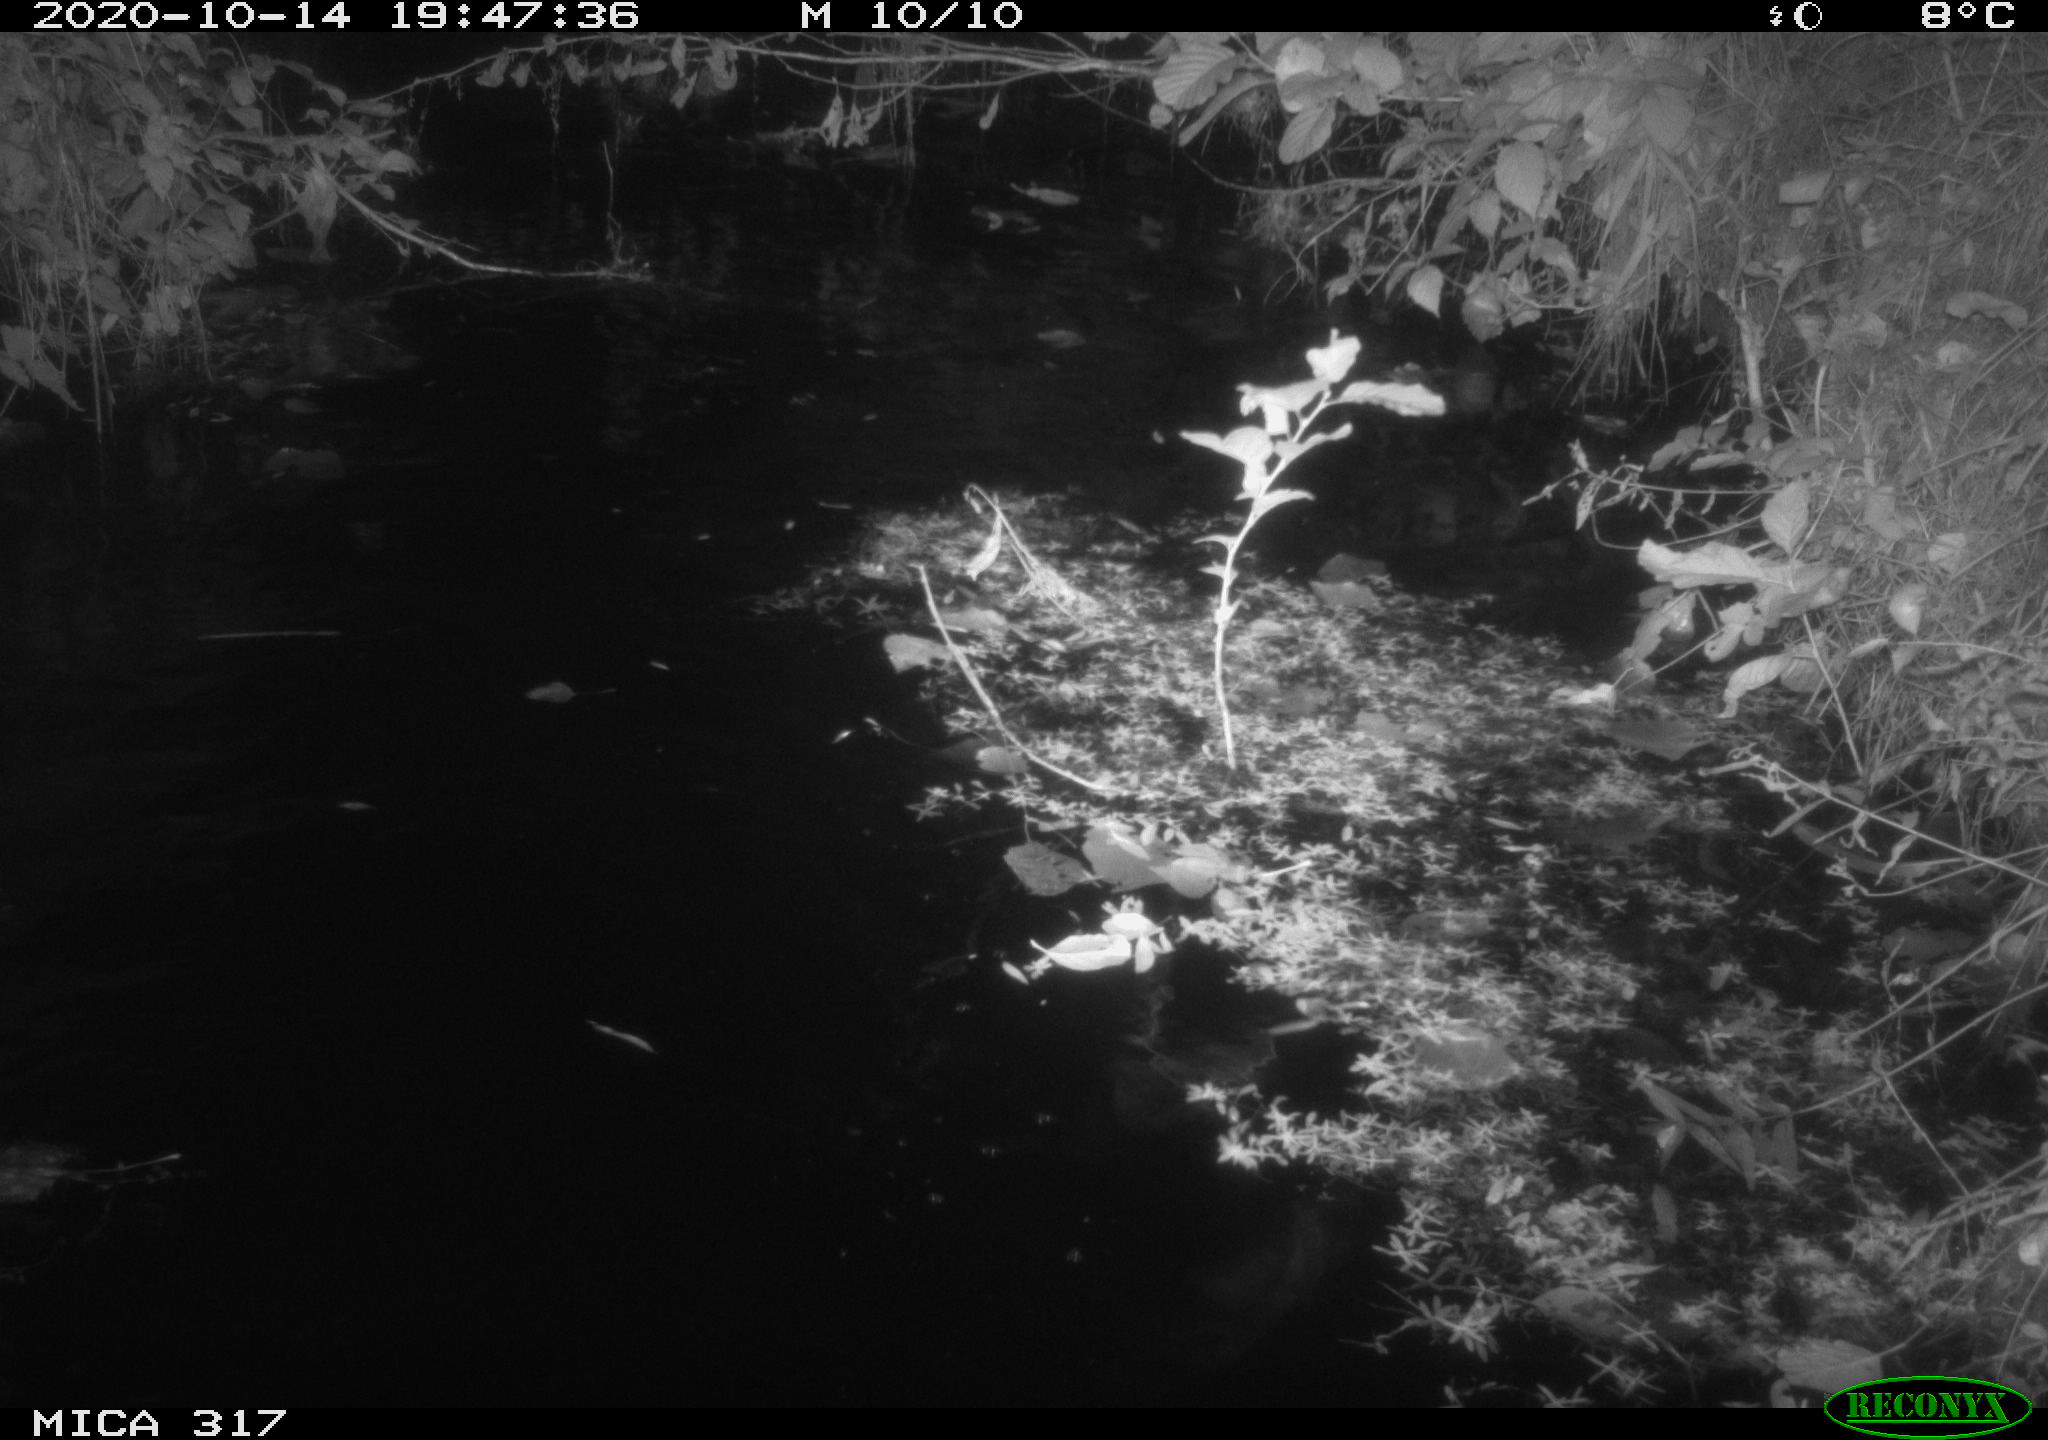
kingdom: Animalia
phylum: Chordata
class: Aves
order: Anseriformes
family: Anatidae
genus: Anas
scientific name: Anas platyrhynchos
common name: Mallard
